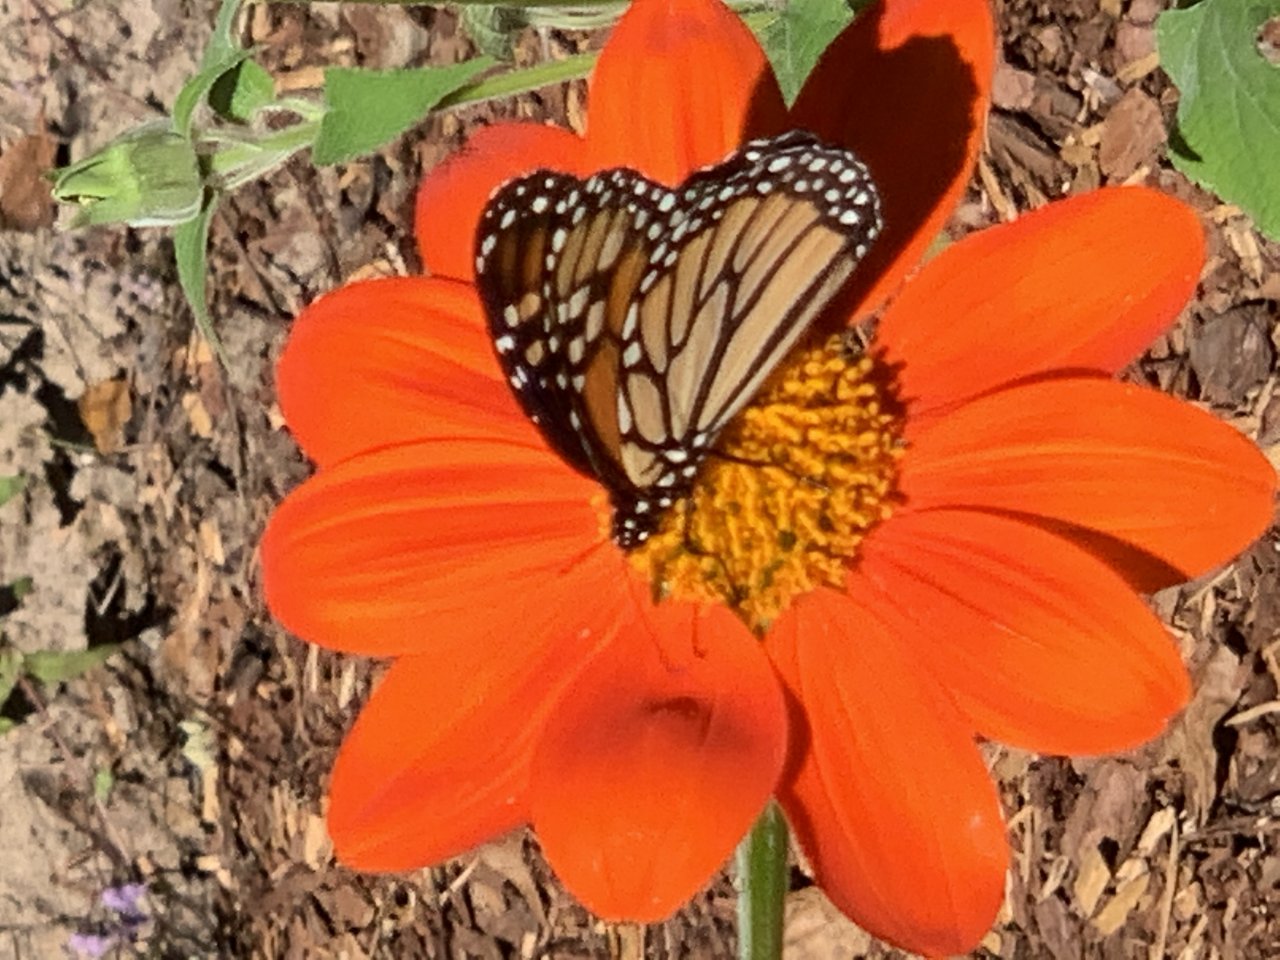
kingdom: Animalia
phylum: Arthropoda
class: Insecta
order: Lepidoptera
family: Nymphalidae
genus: Danaus
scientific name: Danaus plexippus
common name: Monarch
